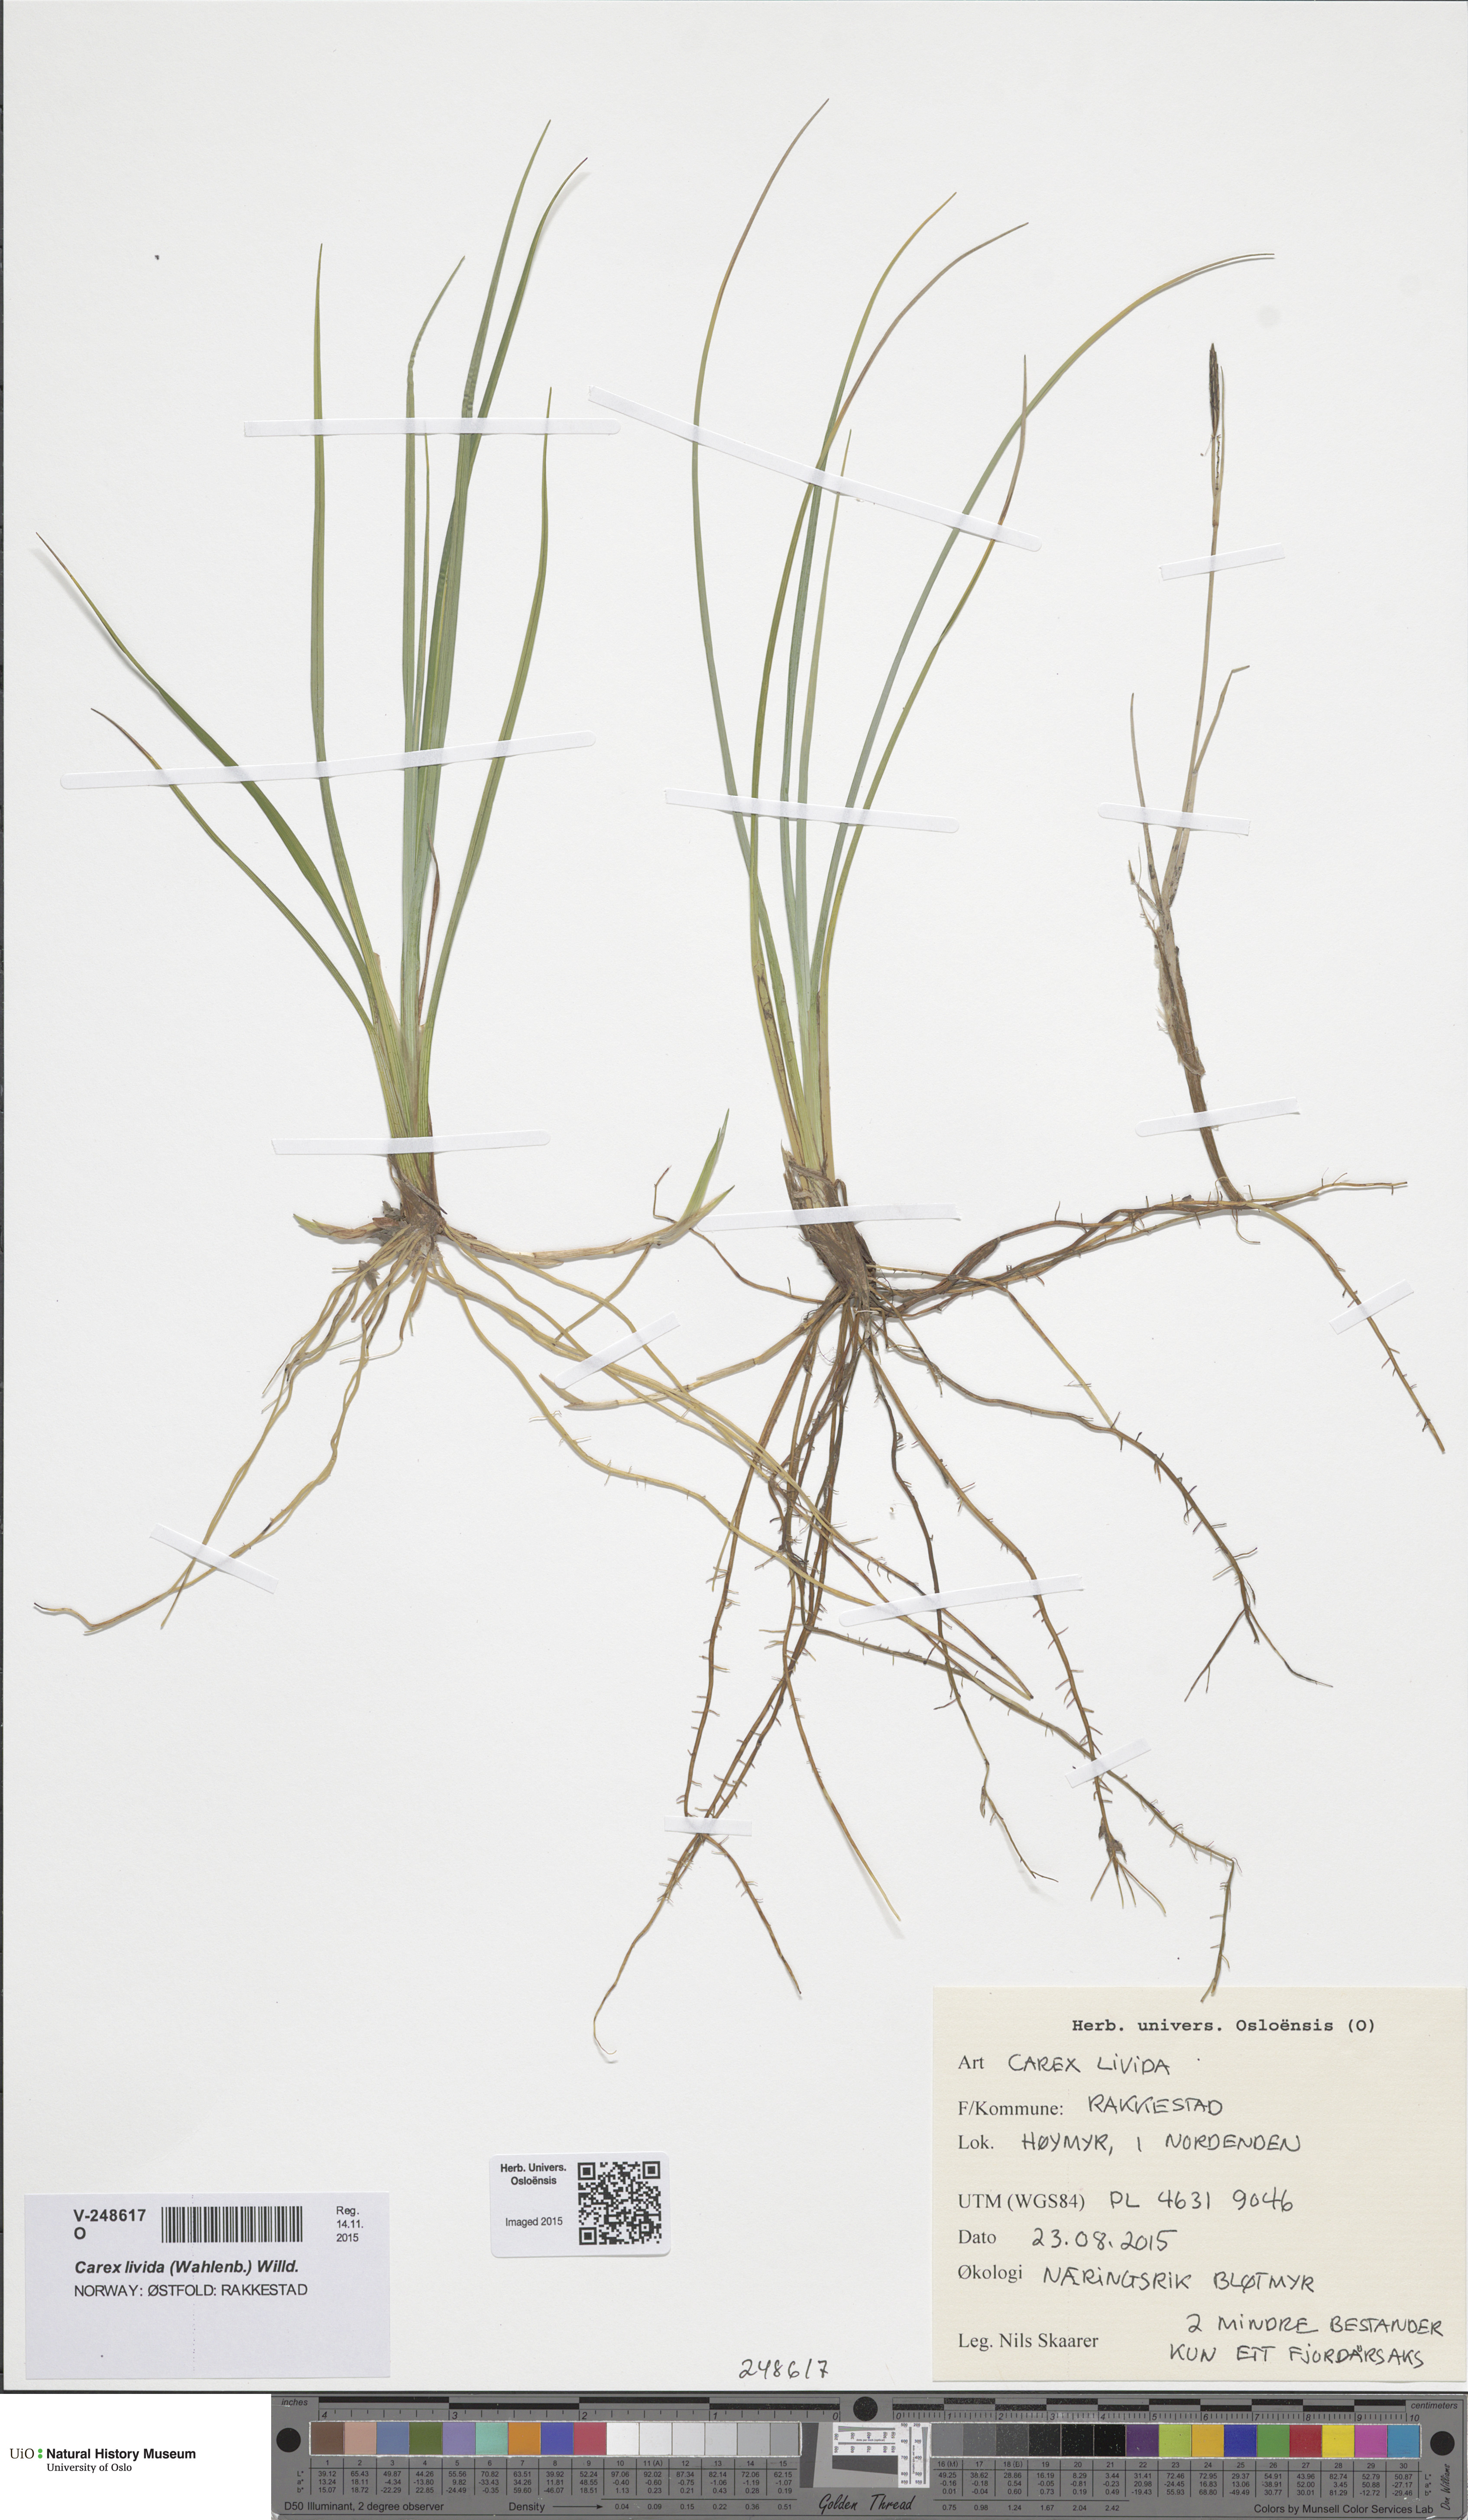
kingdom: Plantae
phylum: Tracheophyta
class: Liliopsida
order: Poales
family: Cyperaceae
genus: Carex
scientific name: Carex livida
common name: Livid sedge
